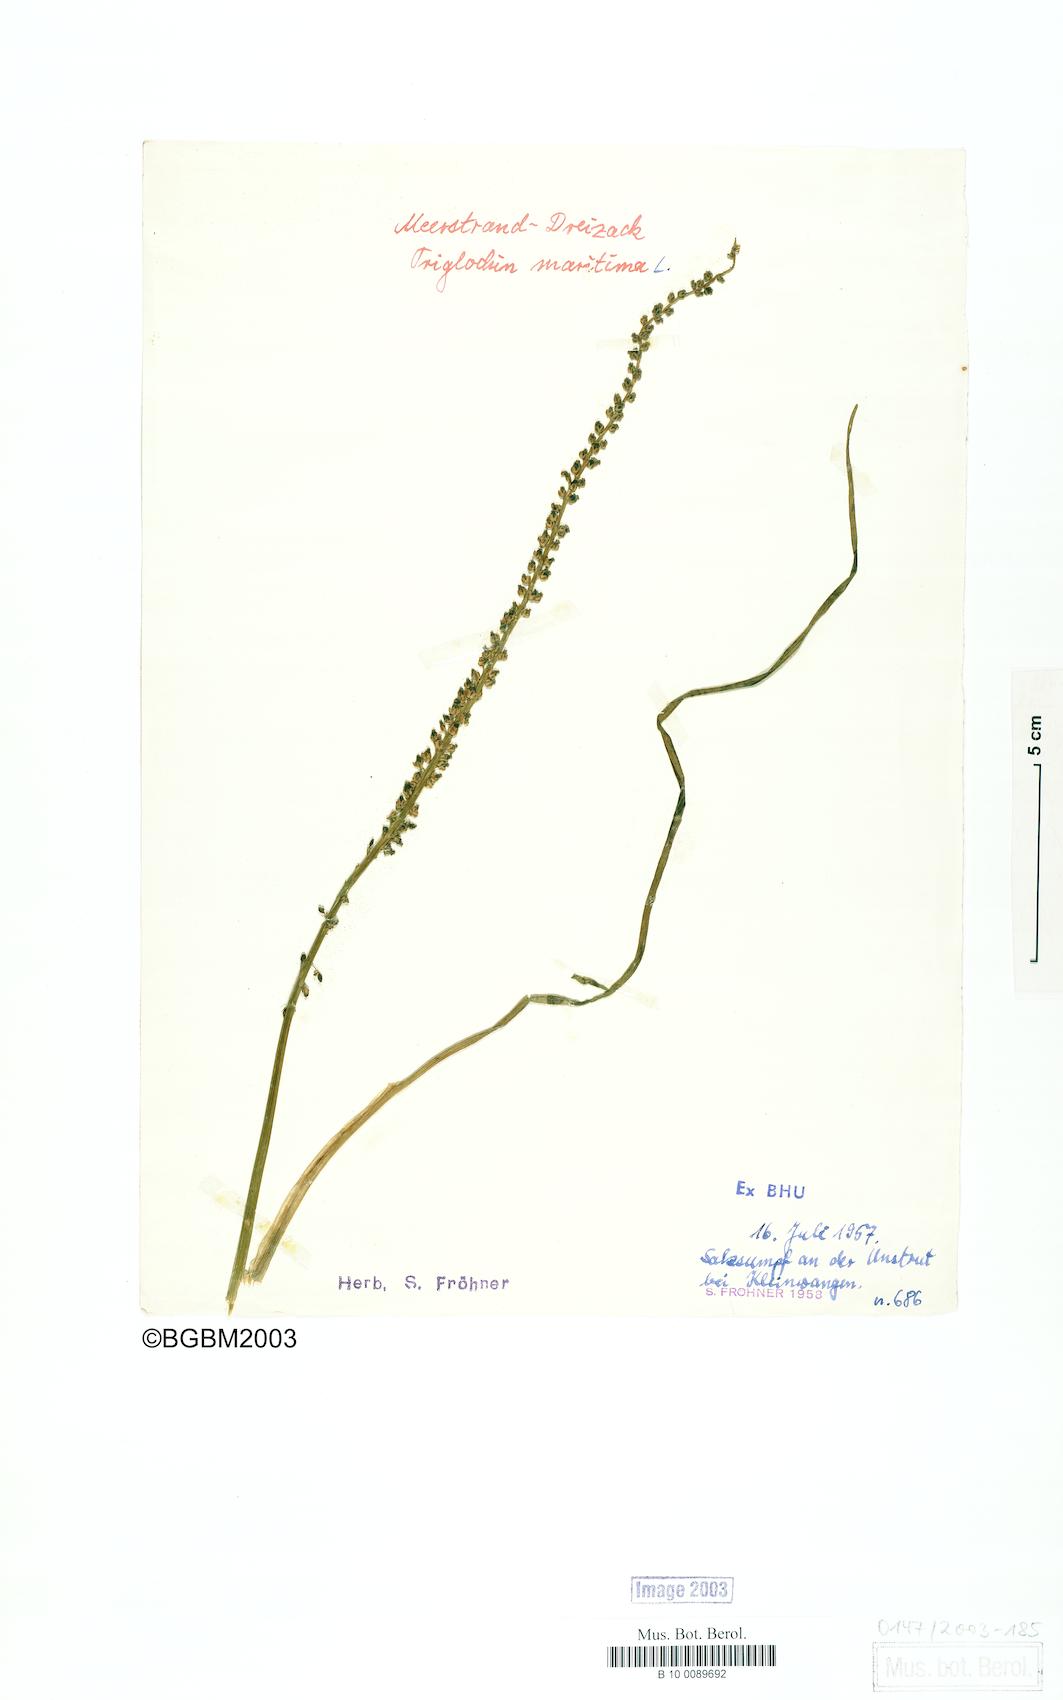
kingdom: Plantae
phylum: Tracheophyta
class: Liliopsida
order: Alismatales
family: Juncaginaceae
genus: Triglochin
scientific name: Triglochin maritima
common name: Sea arrowgrass
